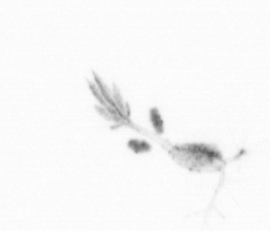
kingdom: Animalia
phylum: Arthropoda
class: Copepoda
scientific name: Copepoda
